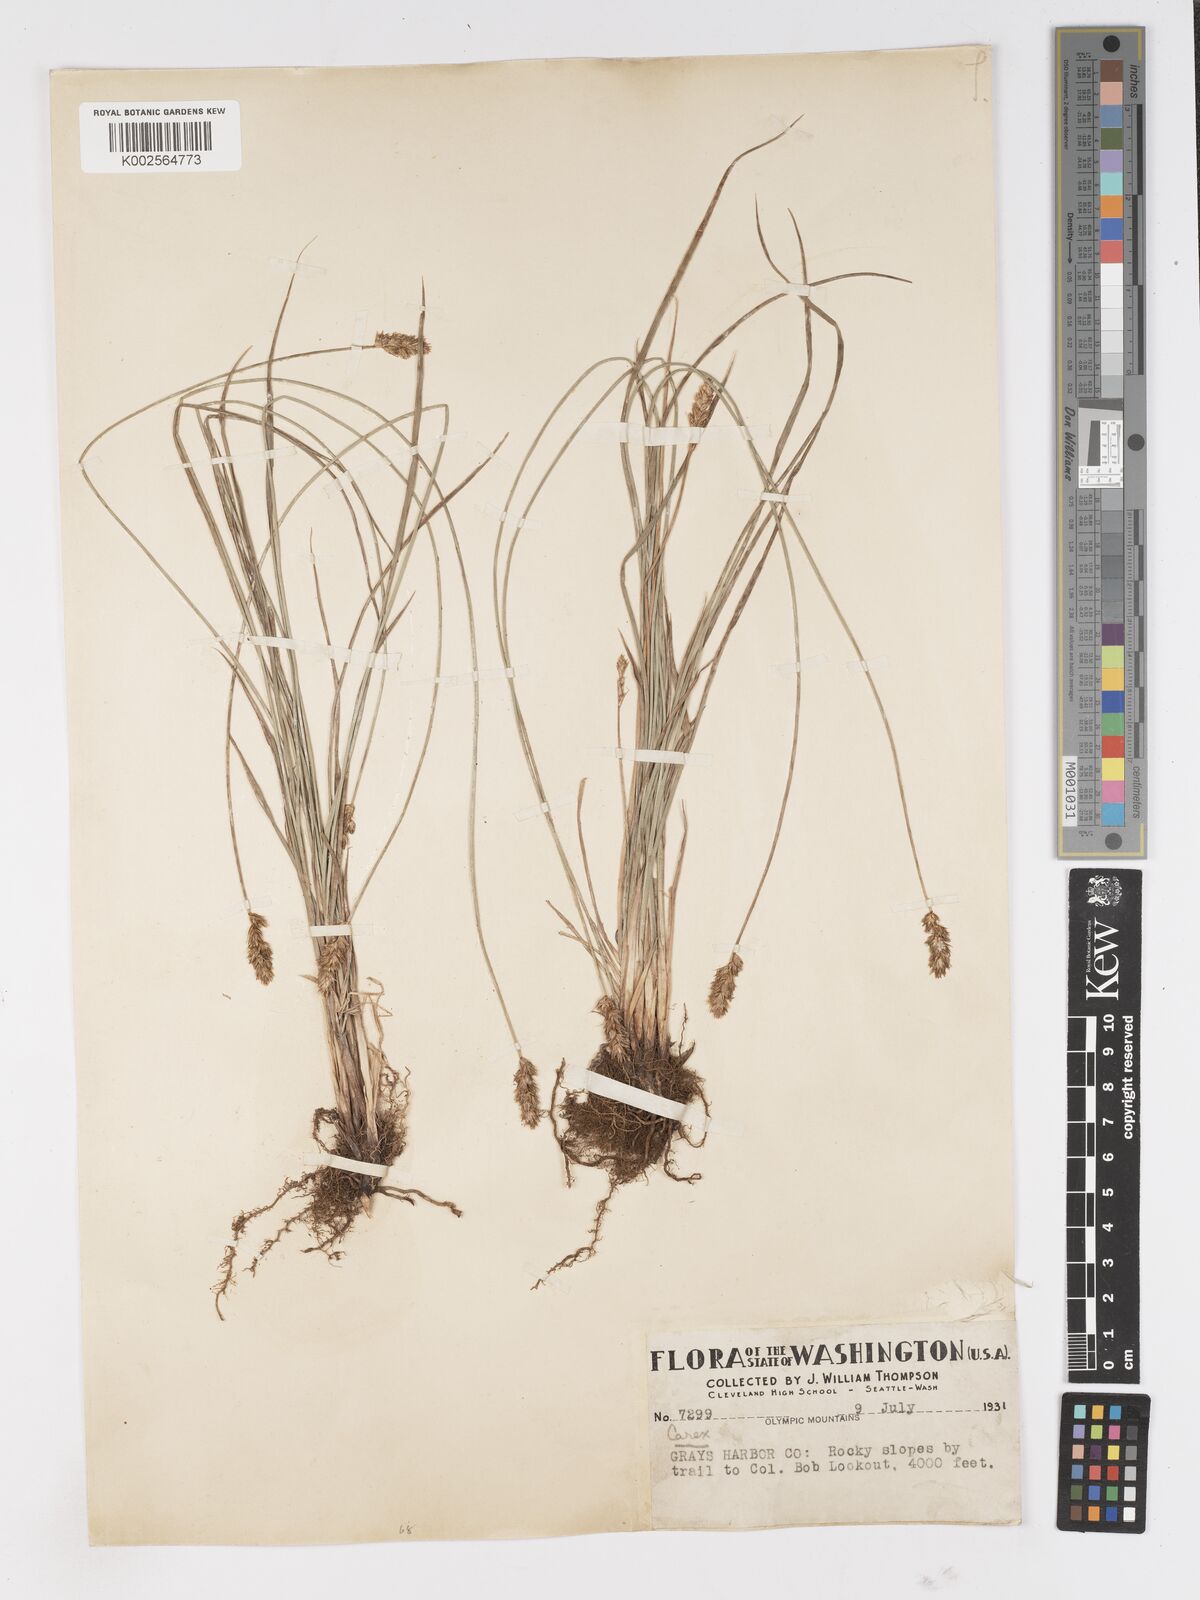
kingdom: Plantae
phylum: Tracheophyta
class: Liliopsida
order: Poales
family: Cyperaceae
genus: Carex
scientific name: Carex
